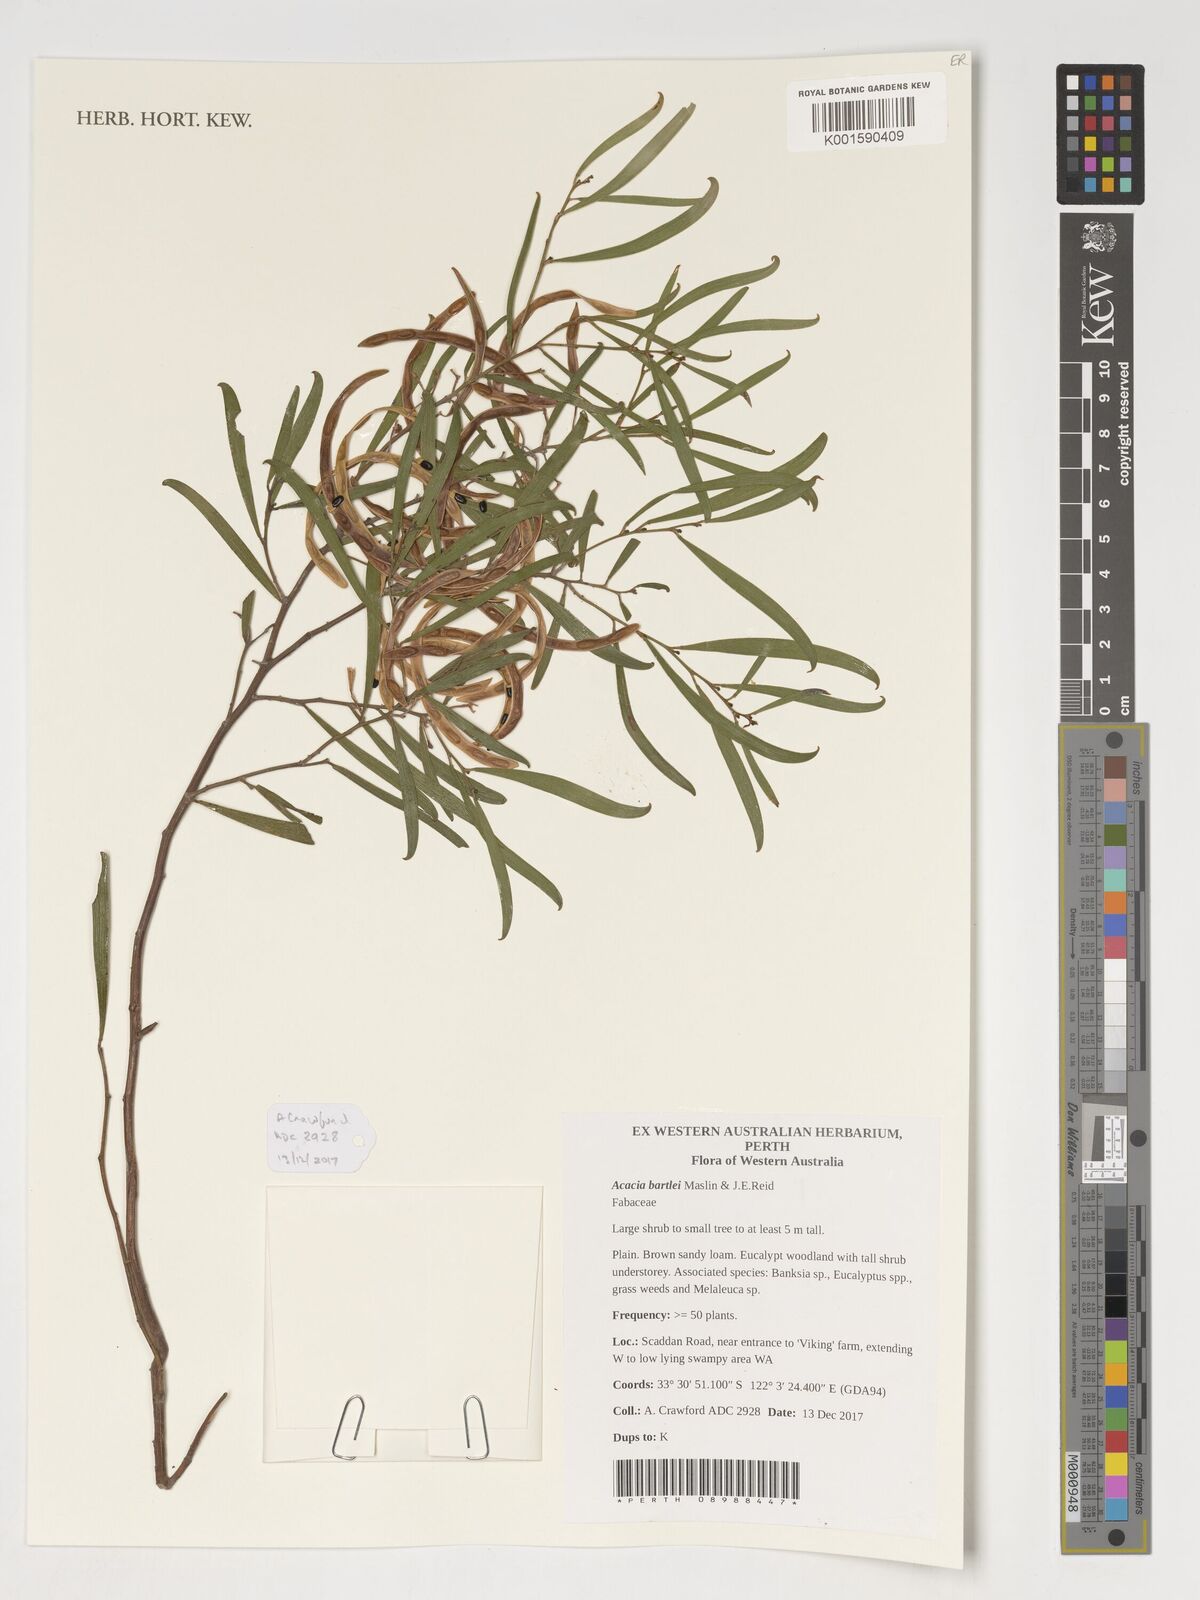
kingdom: Plantae
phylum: Tracheophyta
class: Magnoliopsida
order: Fabales
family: Fabaceae
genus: Acacia
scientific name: Acacia bartlei
